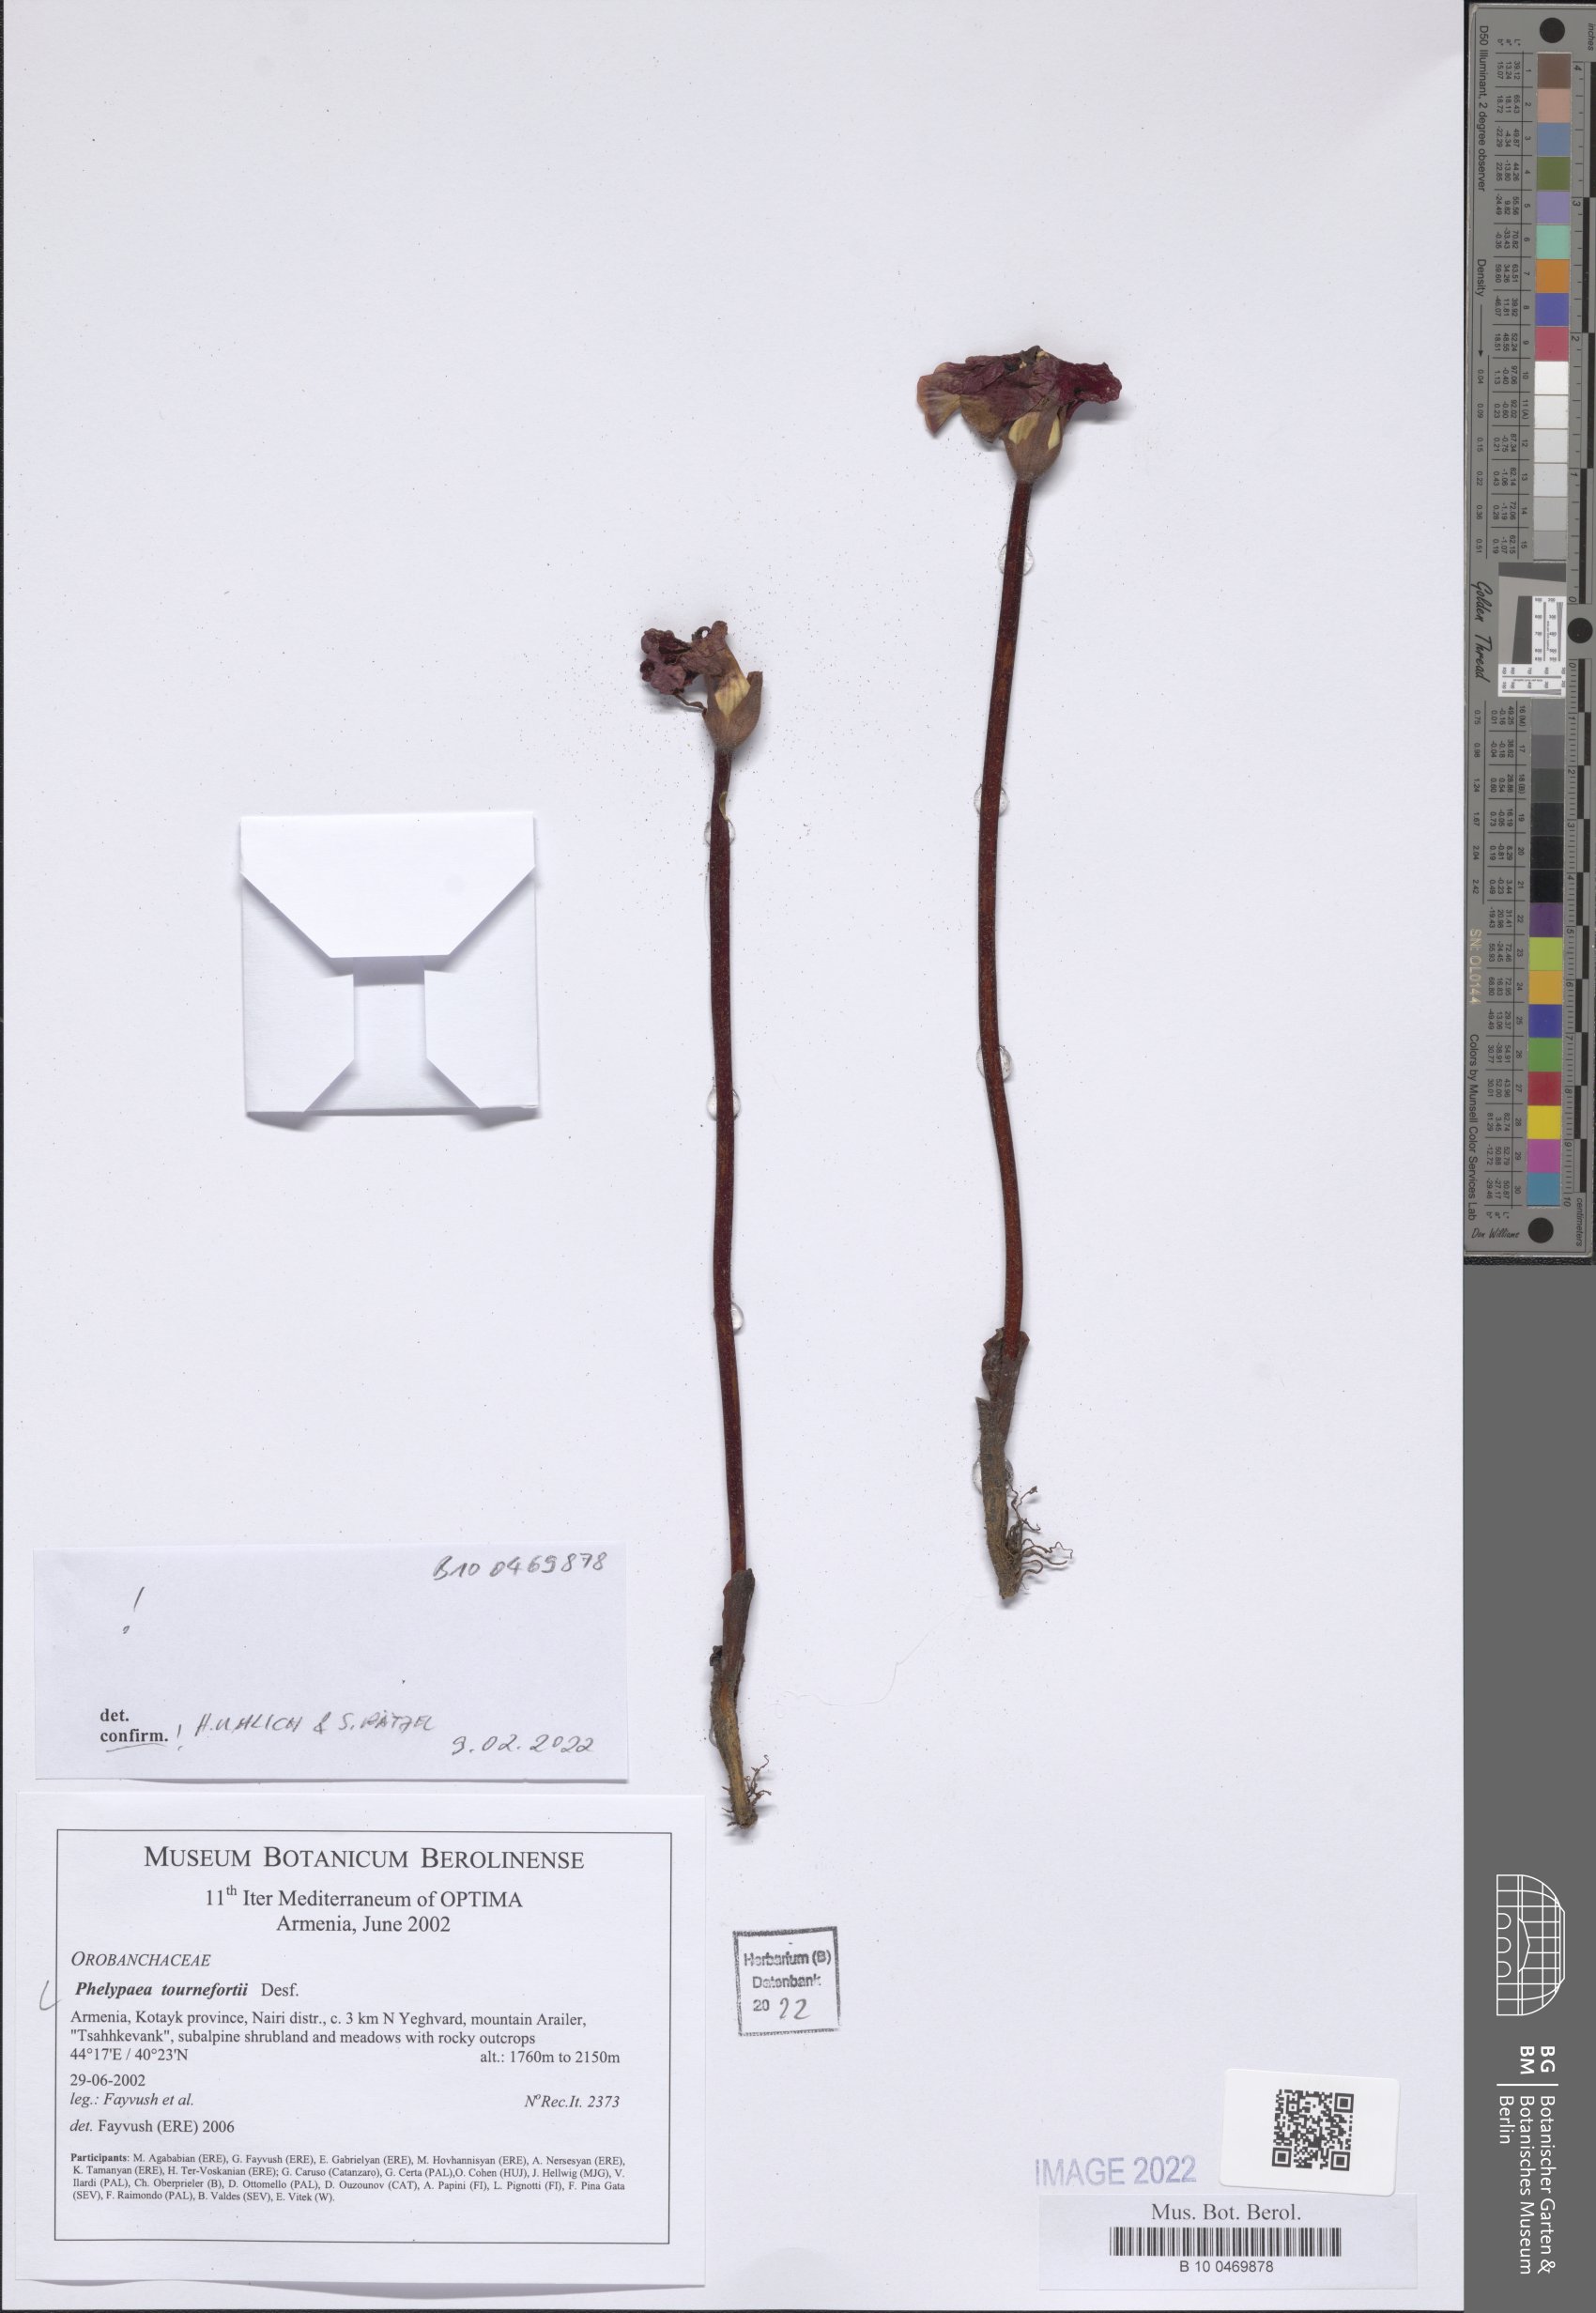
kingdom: Plantae
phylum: Tracheophyta
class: Magnoliopsida
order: Lamiales
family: Orobanchaceae
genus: Diphelypaea
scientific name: Diphelypaea tournefortii
